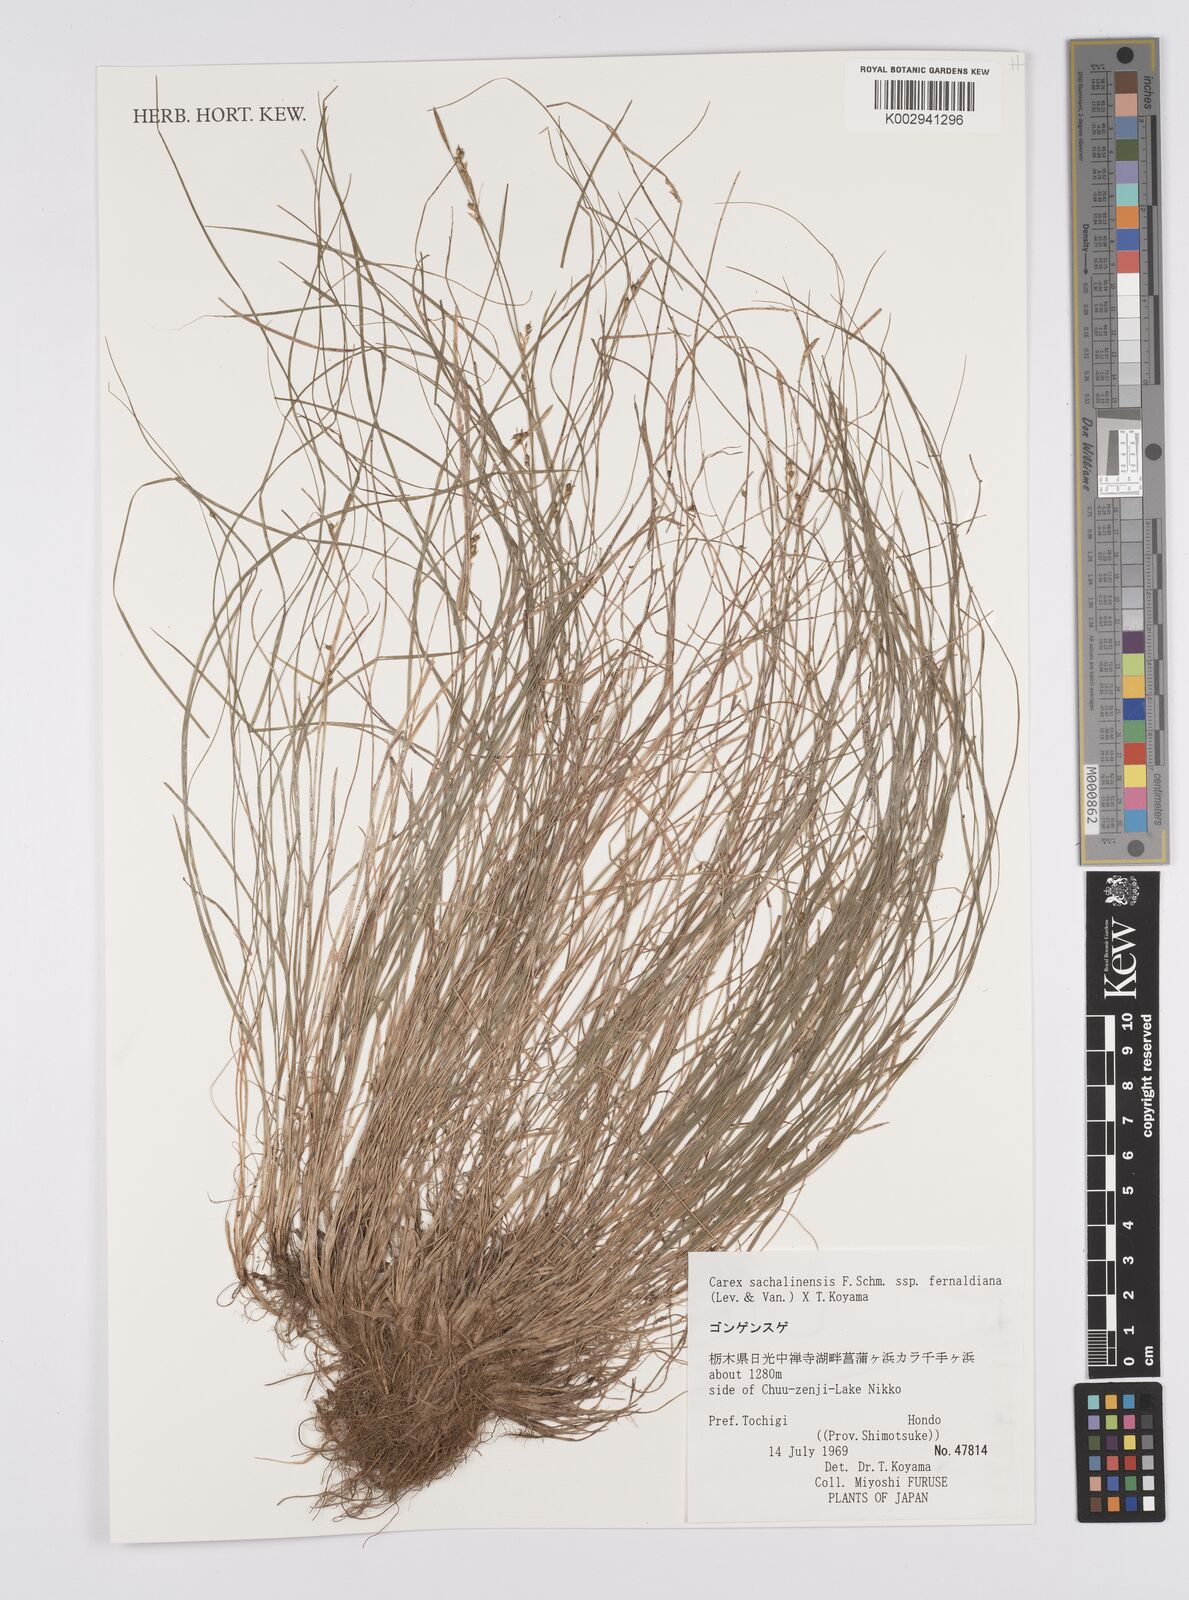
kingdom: Plantae
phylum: Tracheophyta
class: Liliopsida
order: Poales
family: Cyperaceae
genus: Carex
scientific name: Carex pisiformis
